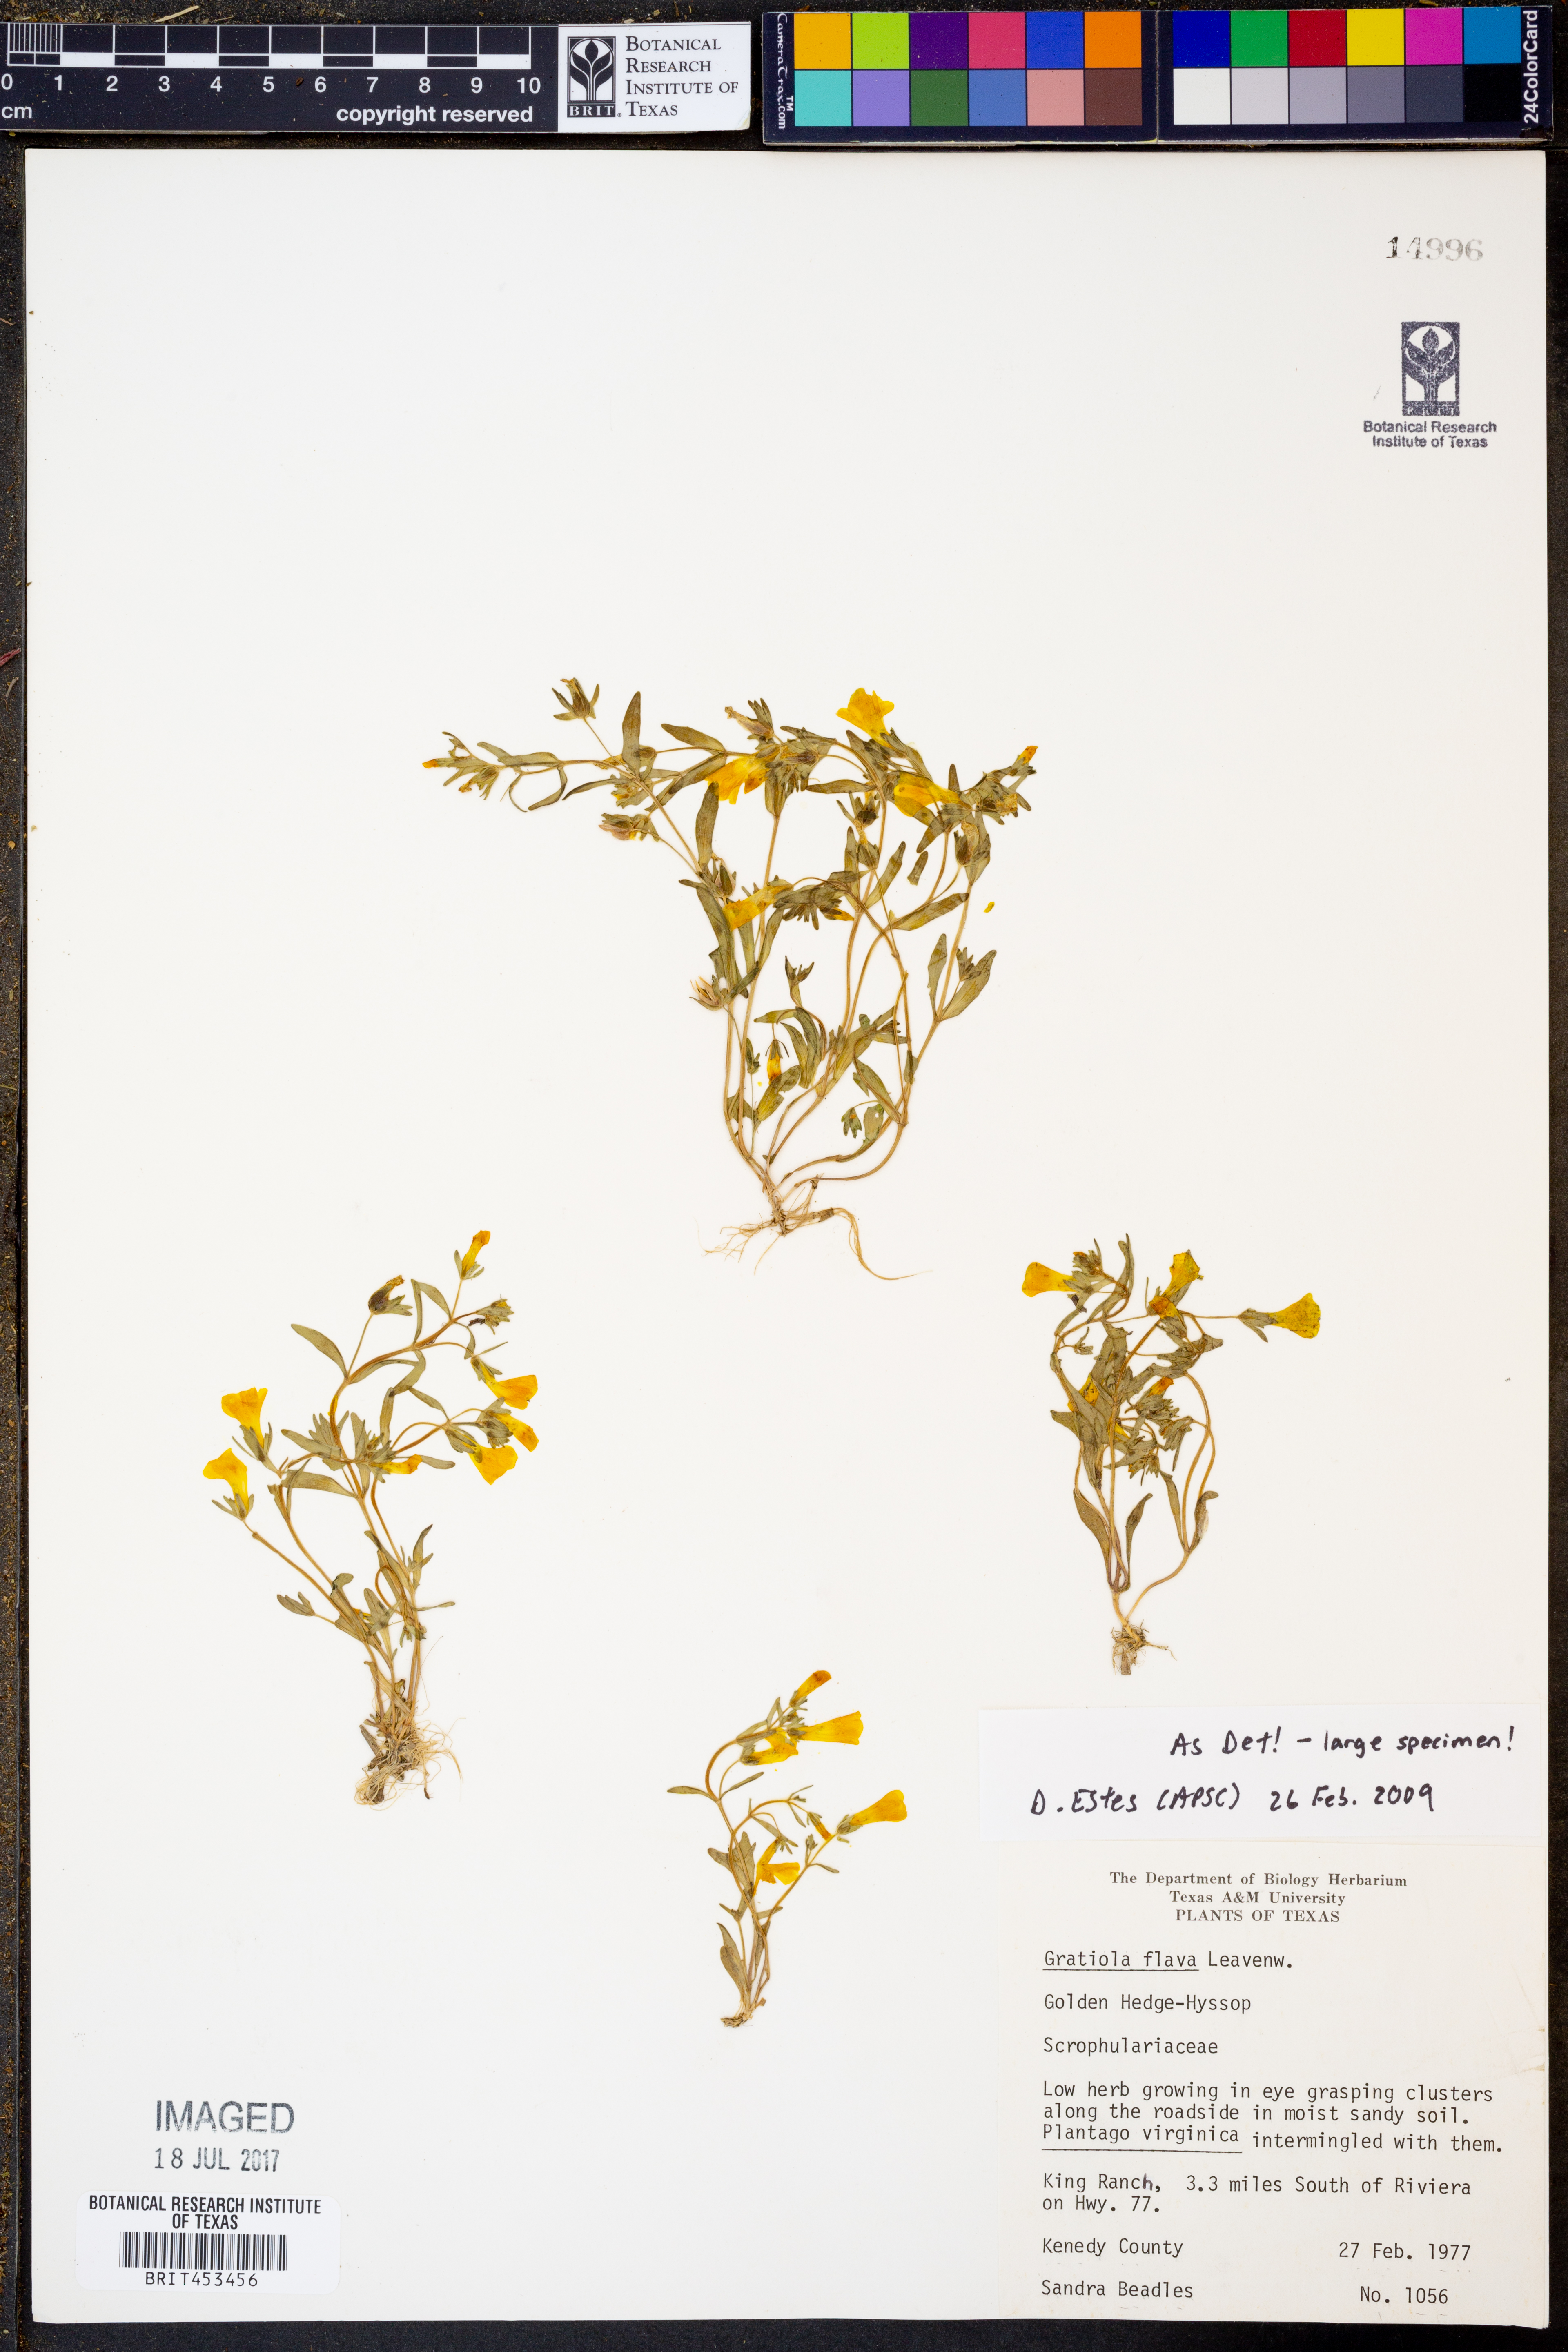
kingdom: Plantae
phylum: Tracheophyta
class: Magnoliopsida
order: Lamiales
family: Plantaginaceae
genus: Gratiola
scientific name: Gratiola flava
